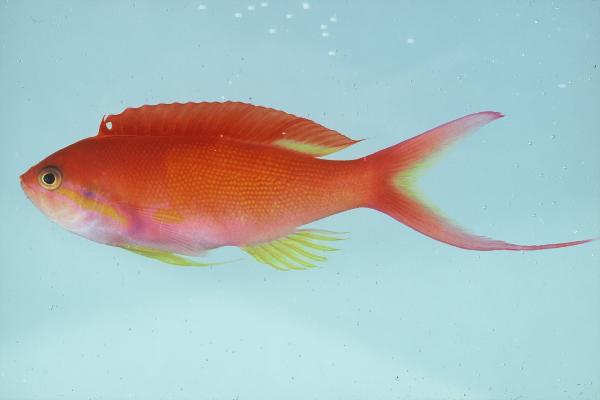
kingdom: Animalia
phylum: Chordata
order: Perciformes
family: Serranidae
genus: Nemanthias
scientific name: Nemanthias carberryi
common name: Threadfin anthias
